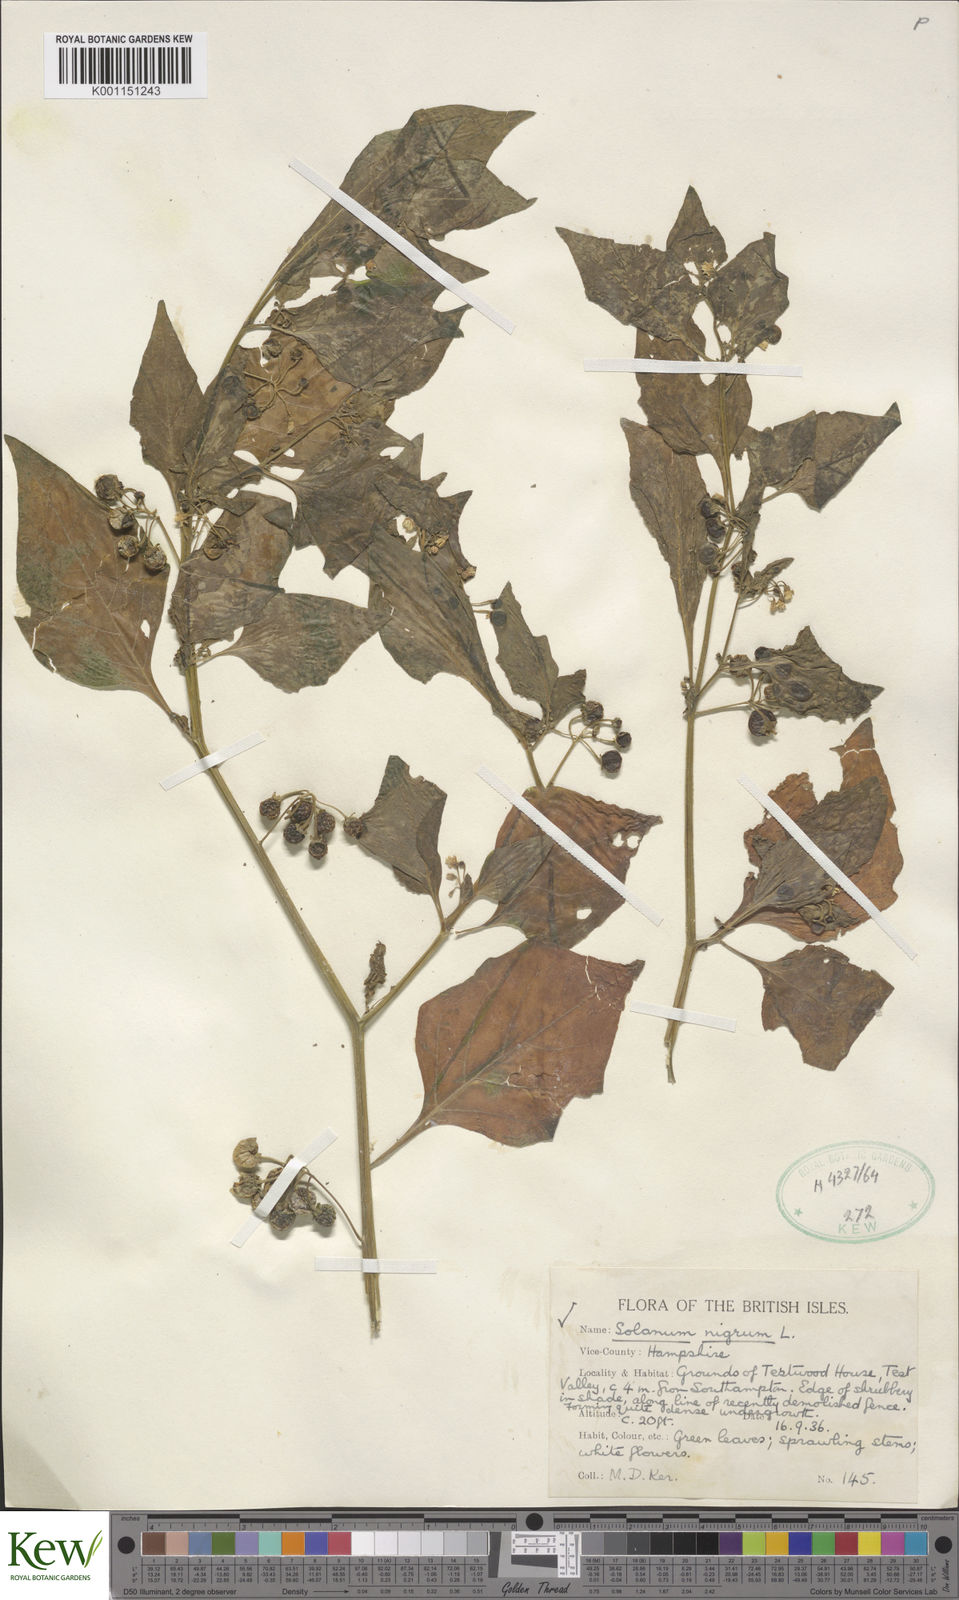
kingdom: Plantae
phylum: Tracheophyta
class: Magnoliopsida
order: Solanales
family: Solanaceae
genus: Solanum
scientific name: Solanum nigrum
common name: Black nightshade
